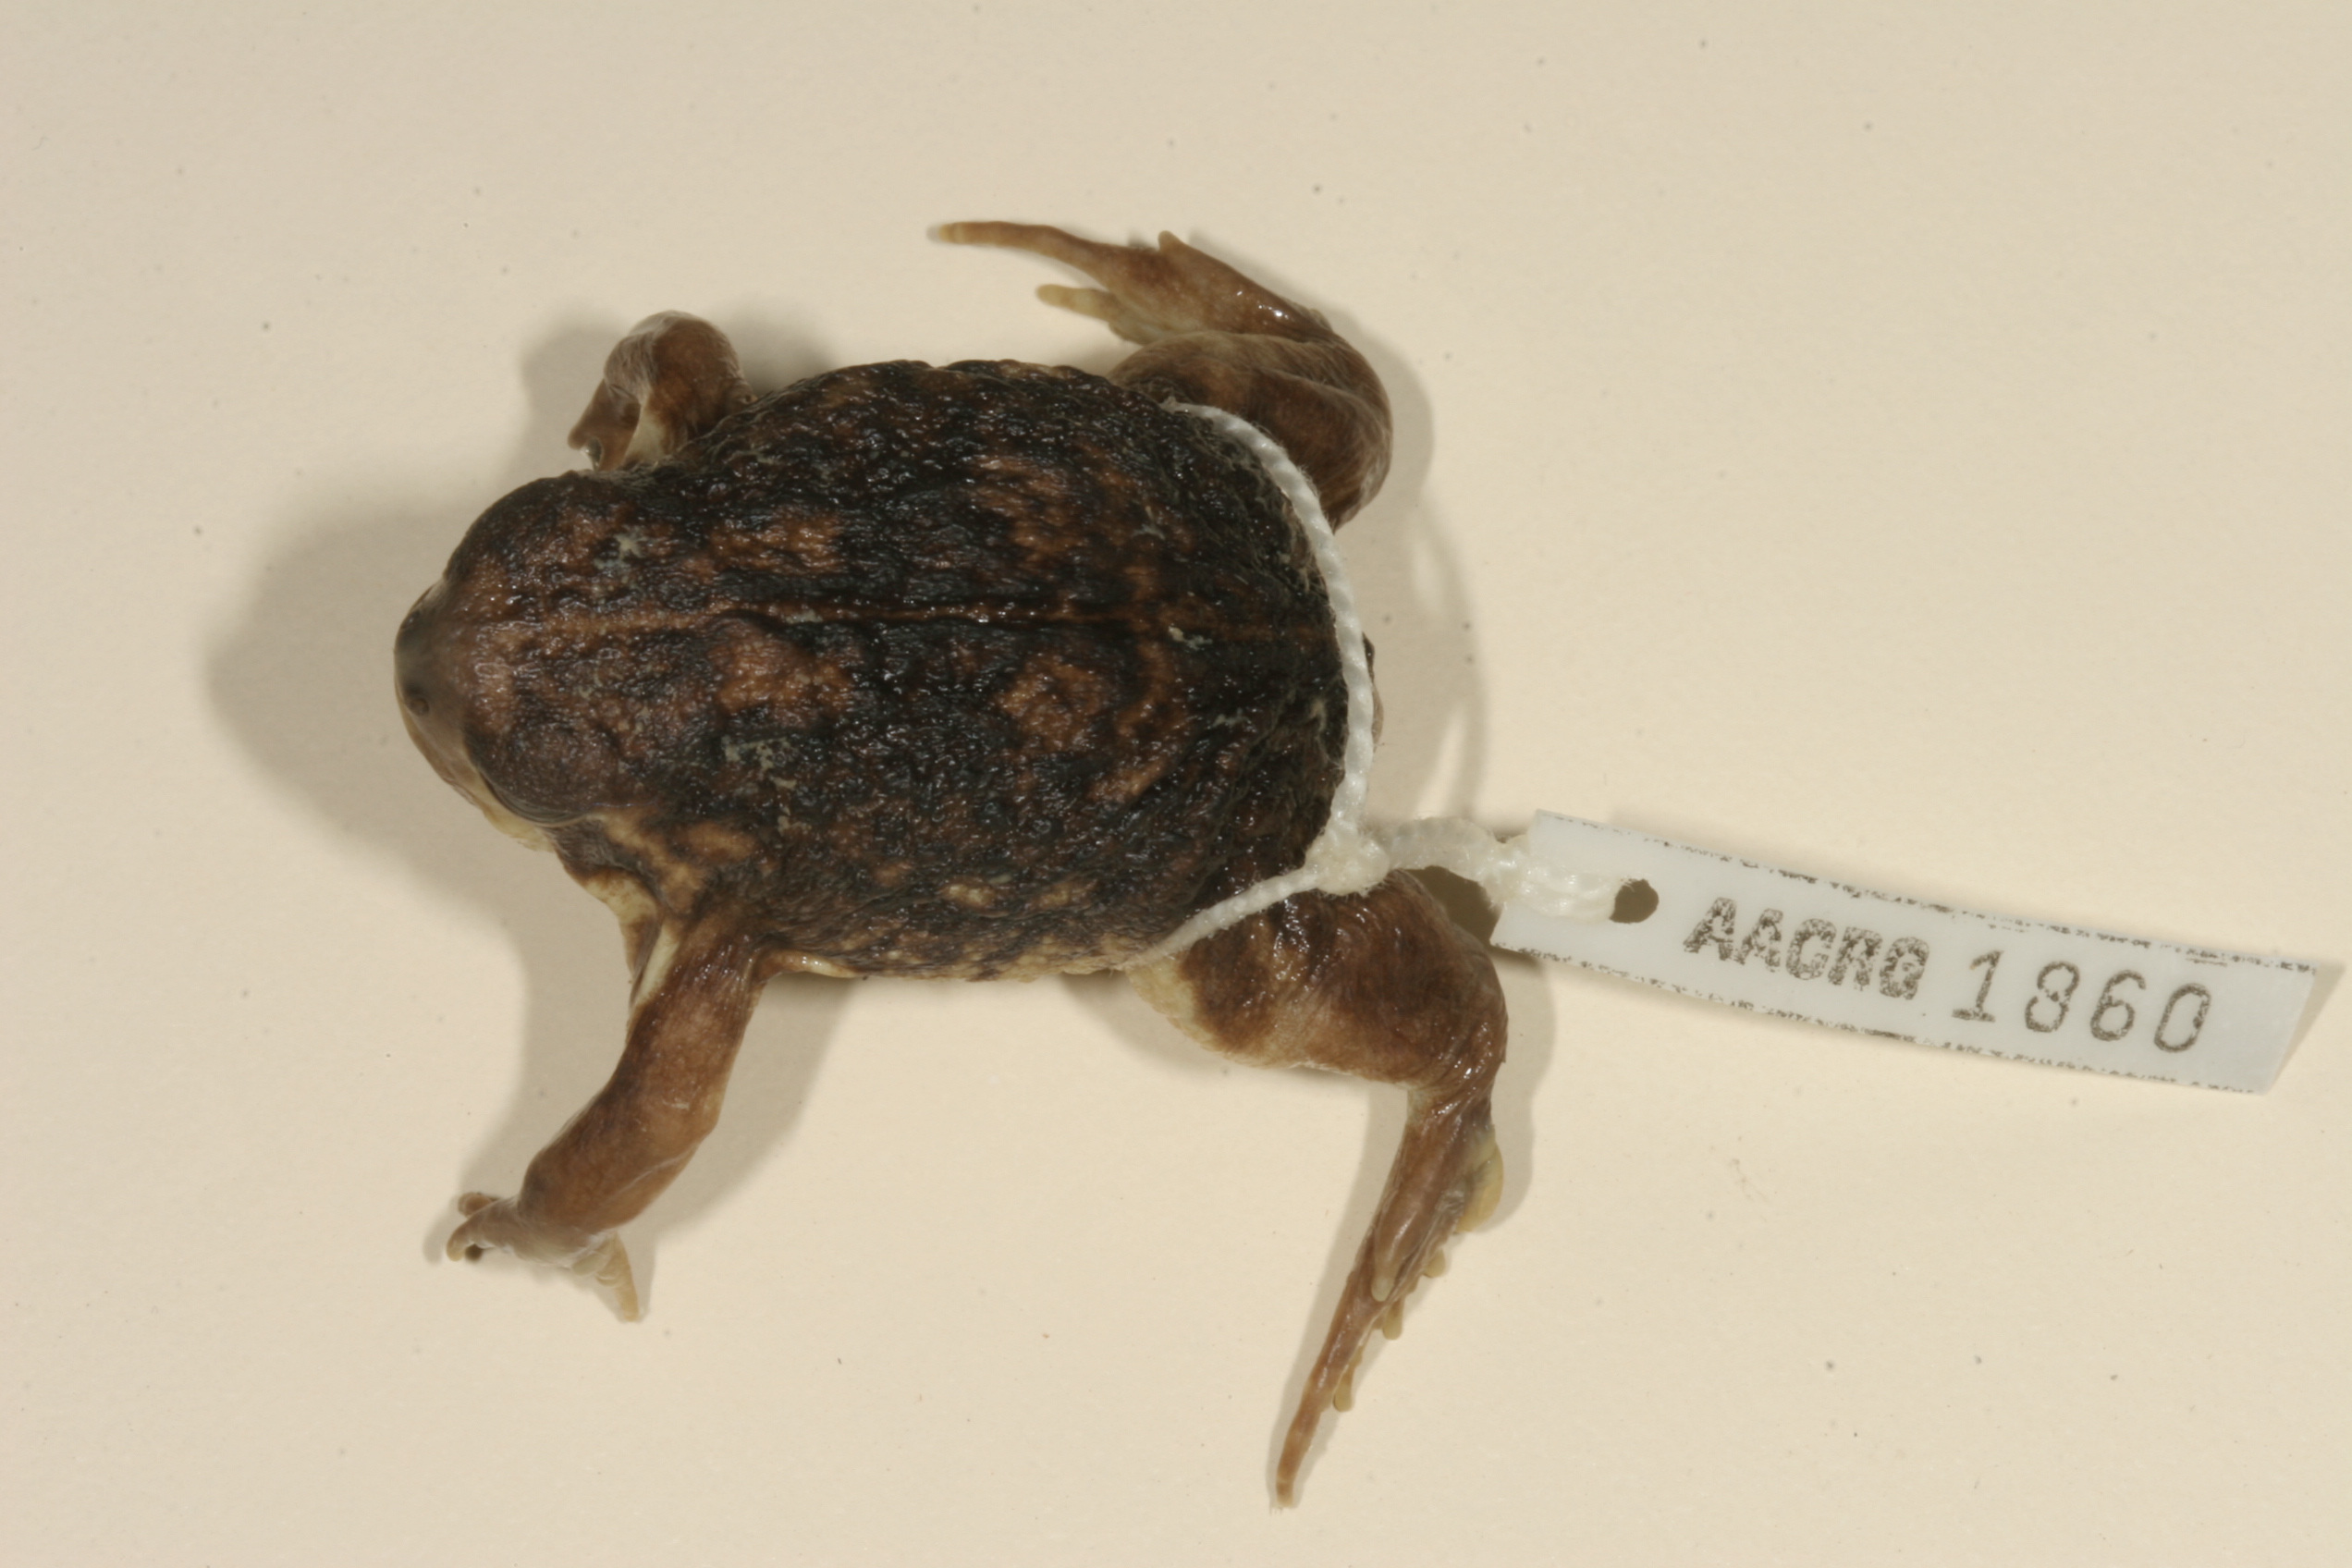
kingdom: Animalia
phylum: Chordata
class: Amphibia
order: Anura
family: Brevicipitidae
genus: Breviceps
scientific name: Breviceps adspersus
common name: Common rain frog
